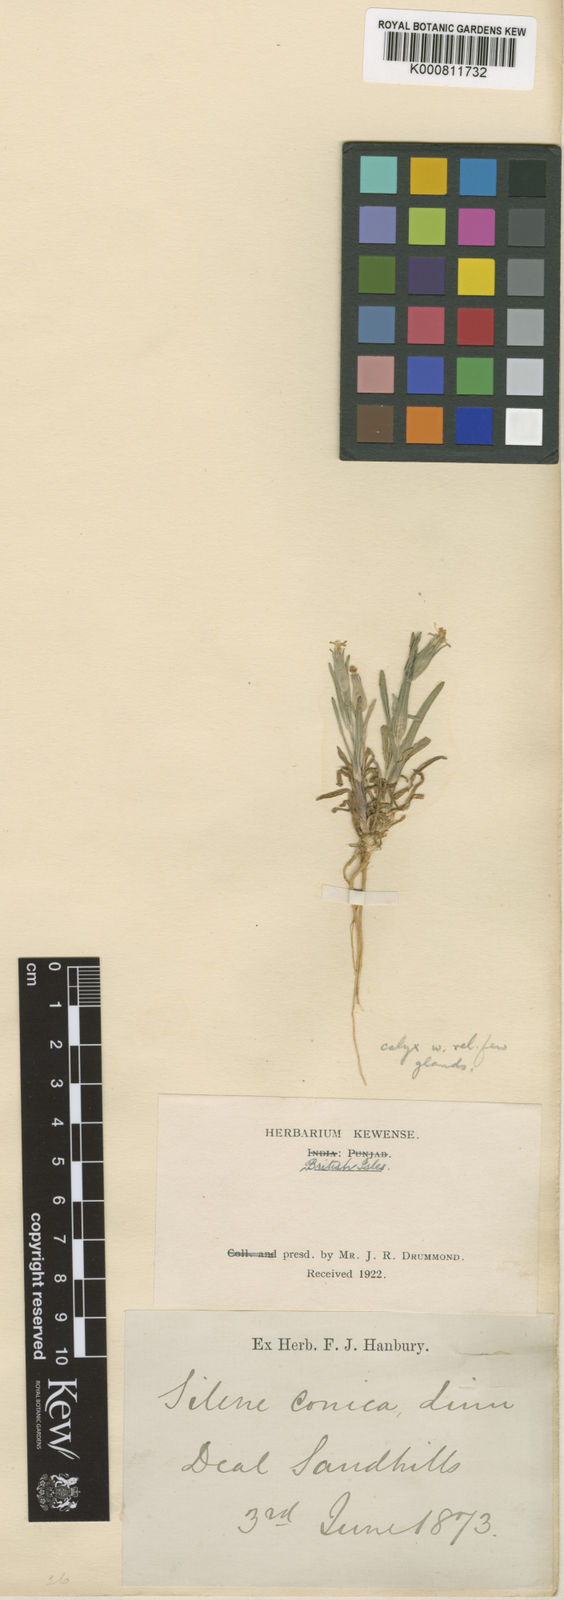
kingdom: Plantae
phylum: Tracheophyta
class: Magnoliopsida
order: Caryophyllales
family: Caryophyllaceae
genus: Silene
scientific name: Silene conica
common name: Sand catchfly
